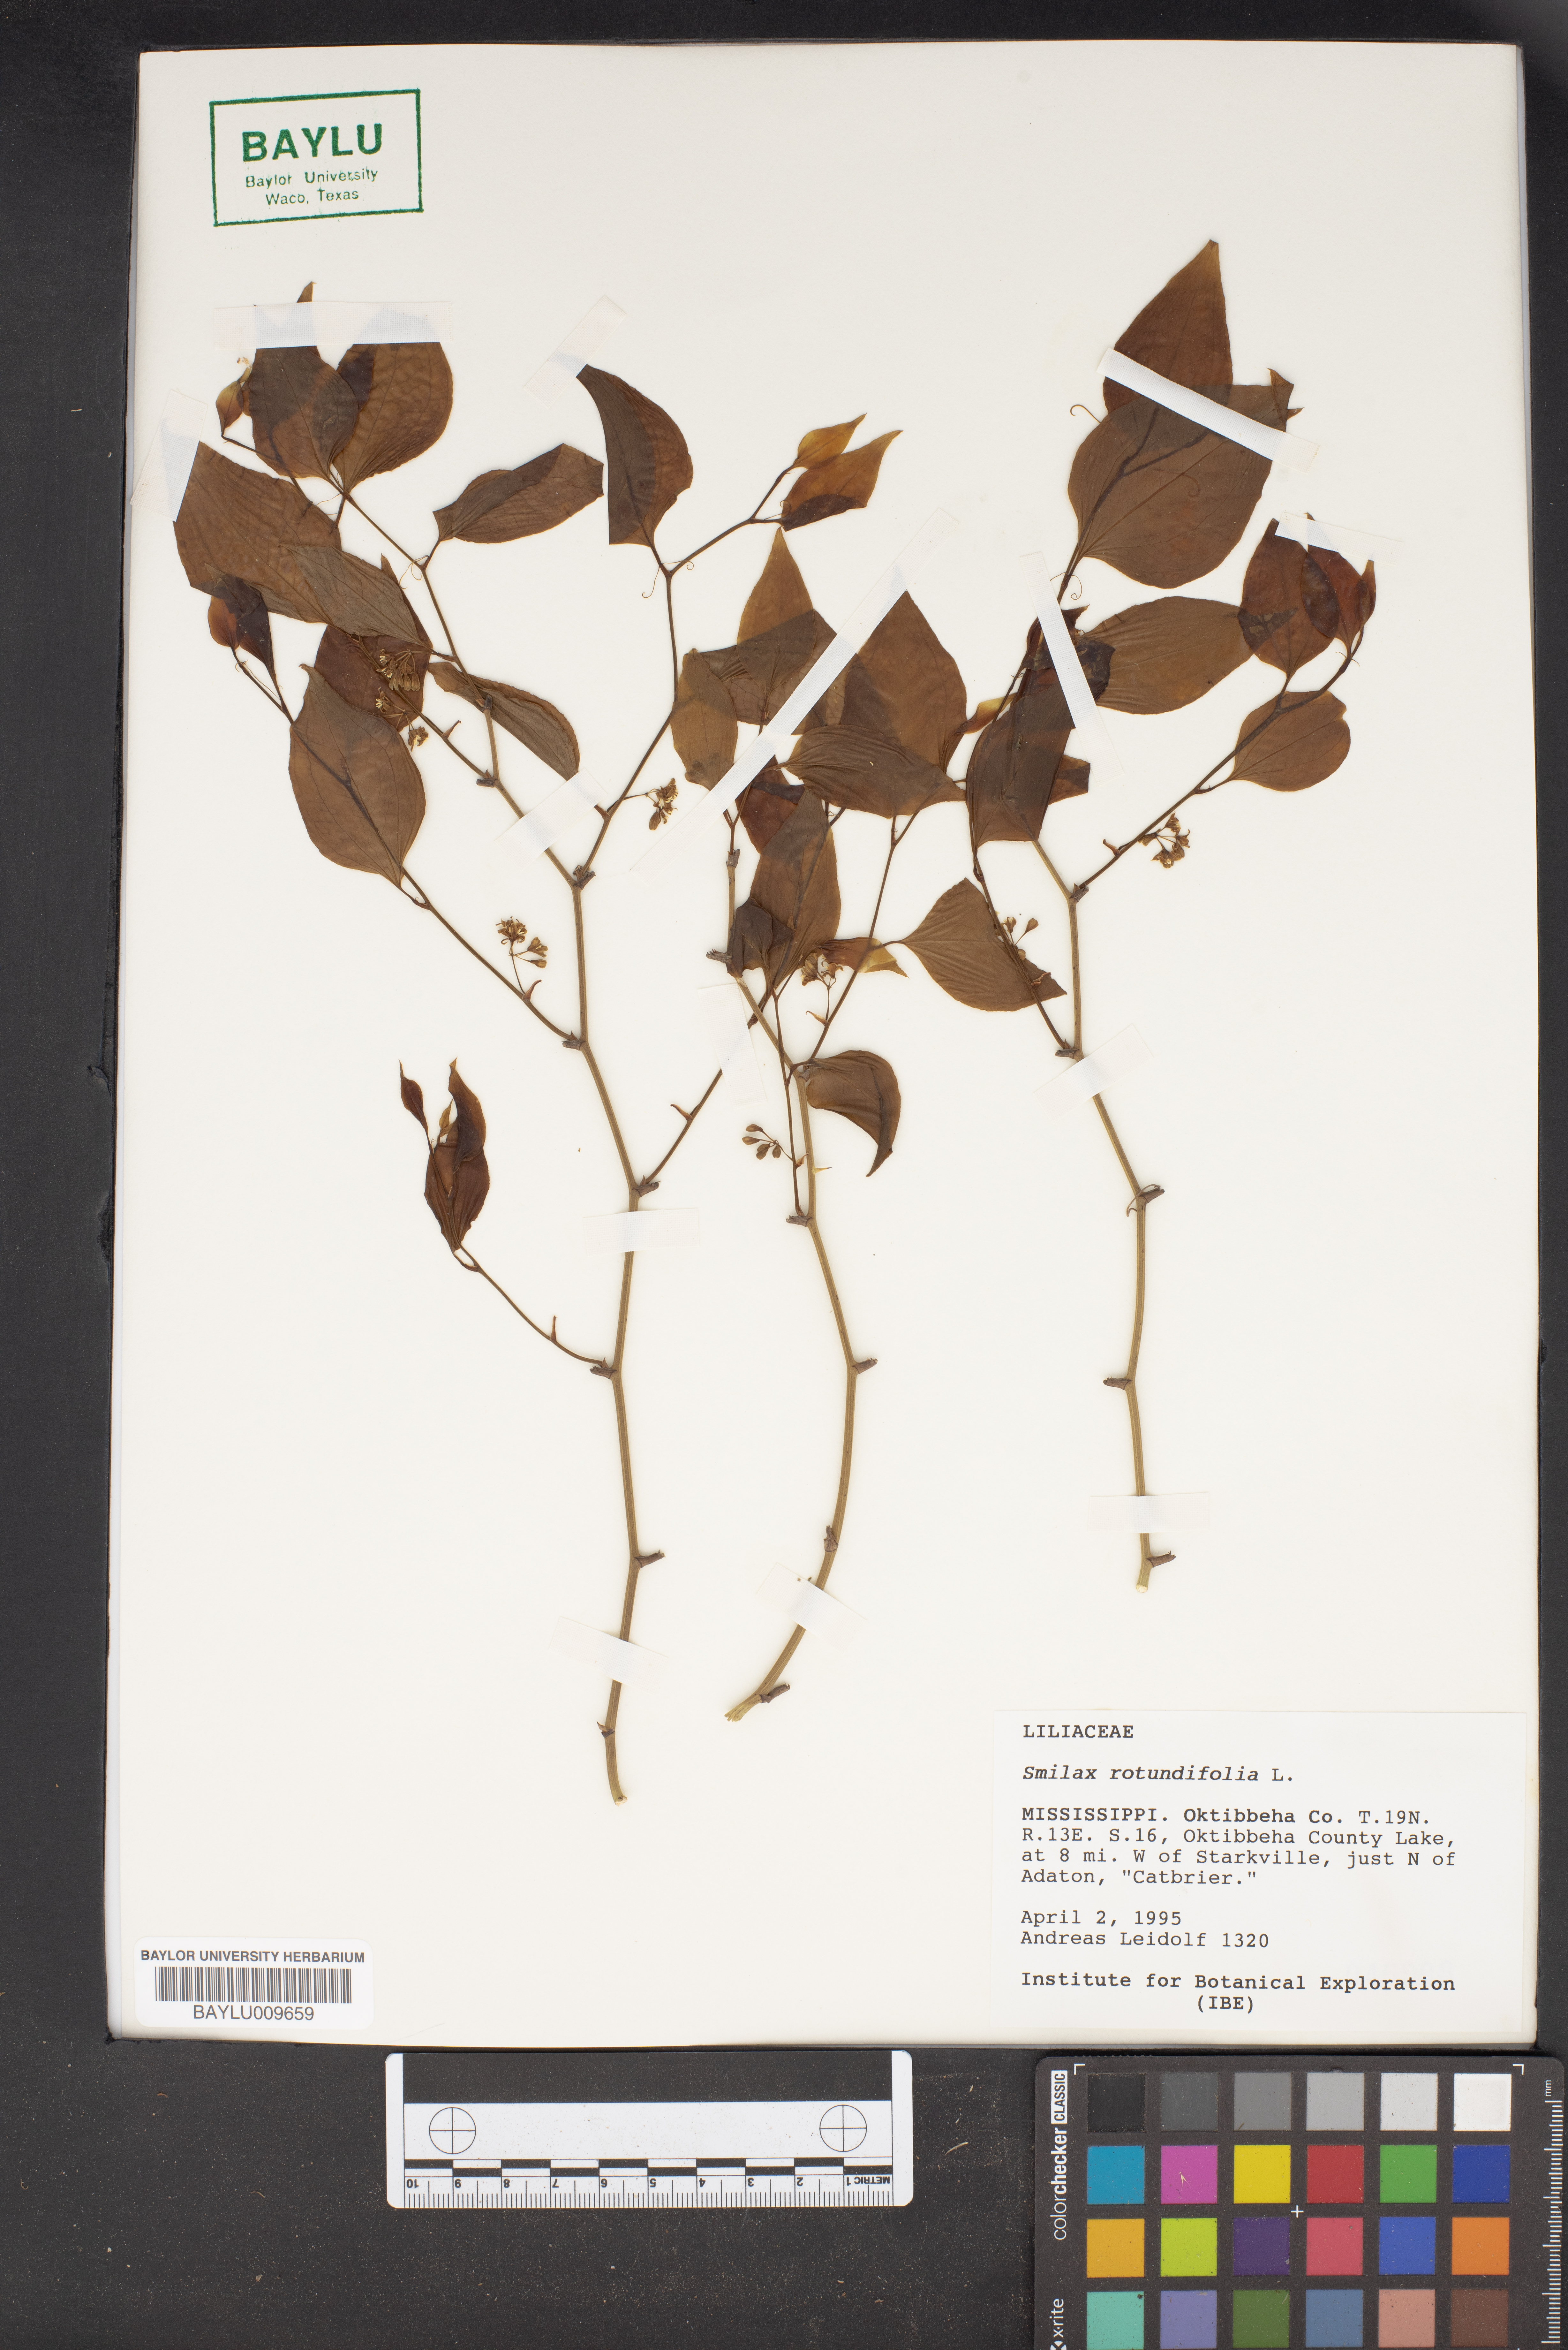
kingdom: Plantae
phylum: Tracheophyta
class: Liliopsida
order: Liliales
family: Smilacaceae
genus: Smilax
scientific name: Smilax rotundifolia
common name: Bullbriar
